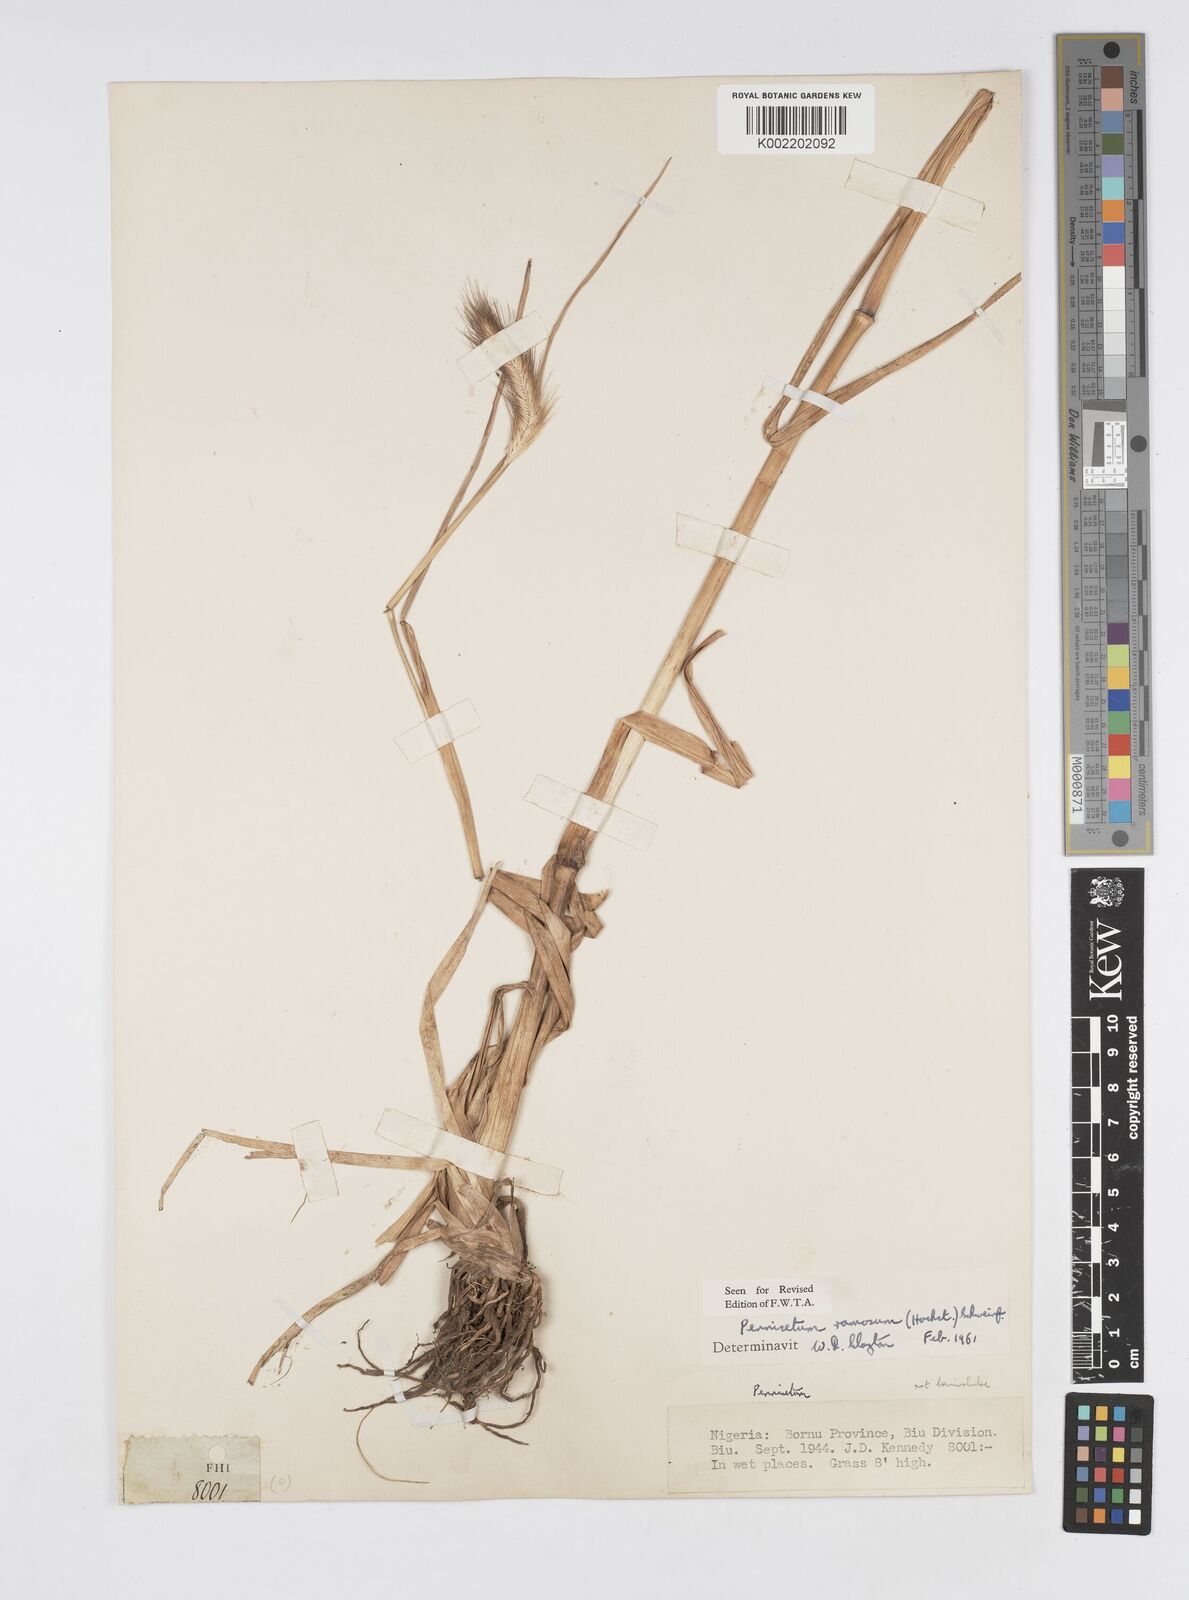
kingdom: Plantae
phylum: Tracheophyta
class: Liliopsida
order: Poales
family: Poaceae
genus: Cenchrus
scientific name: Cenchrus ramosus
